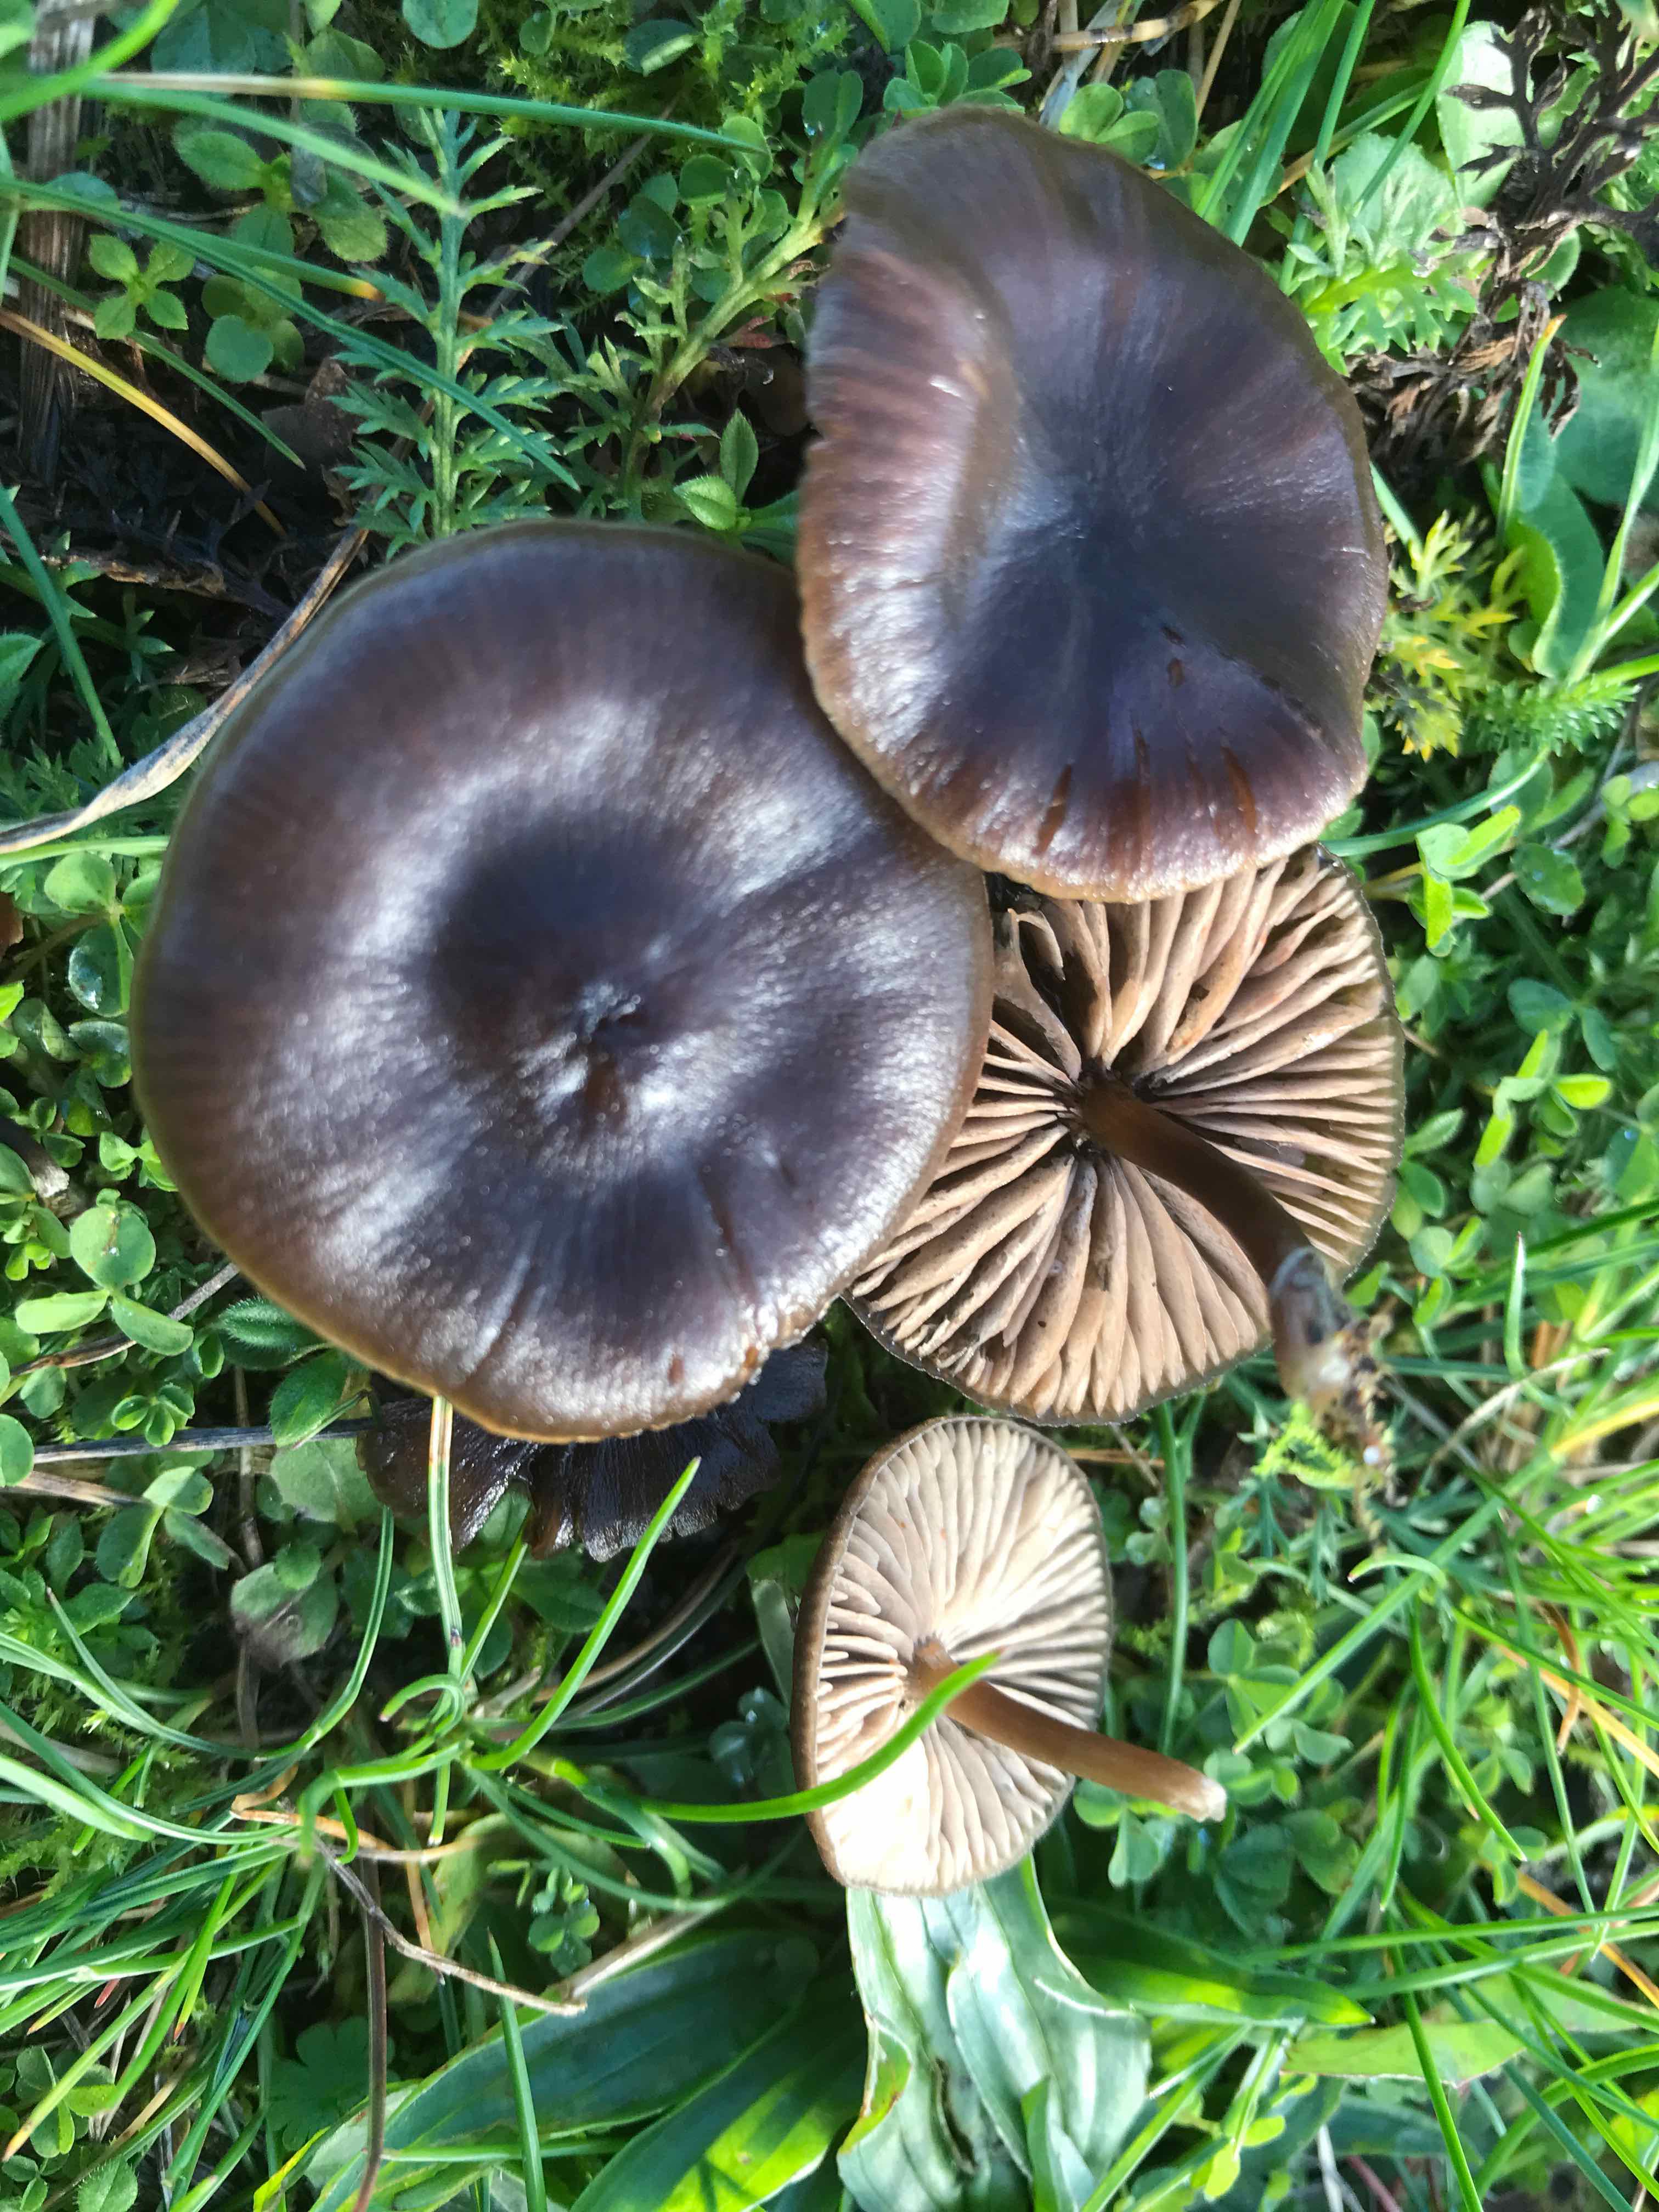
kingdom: Fungi
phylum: Basidiomycota
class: Agaricomycetes
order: Agaricales
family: Entolomataceae
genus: Entoloma
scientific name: Entoloma
